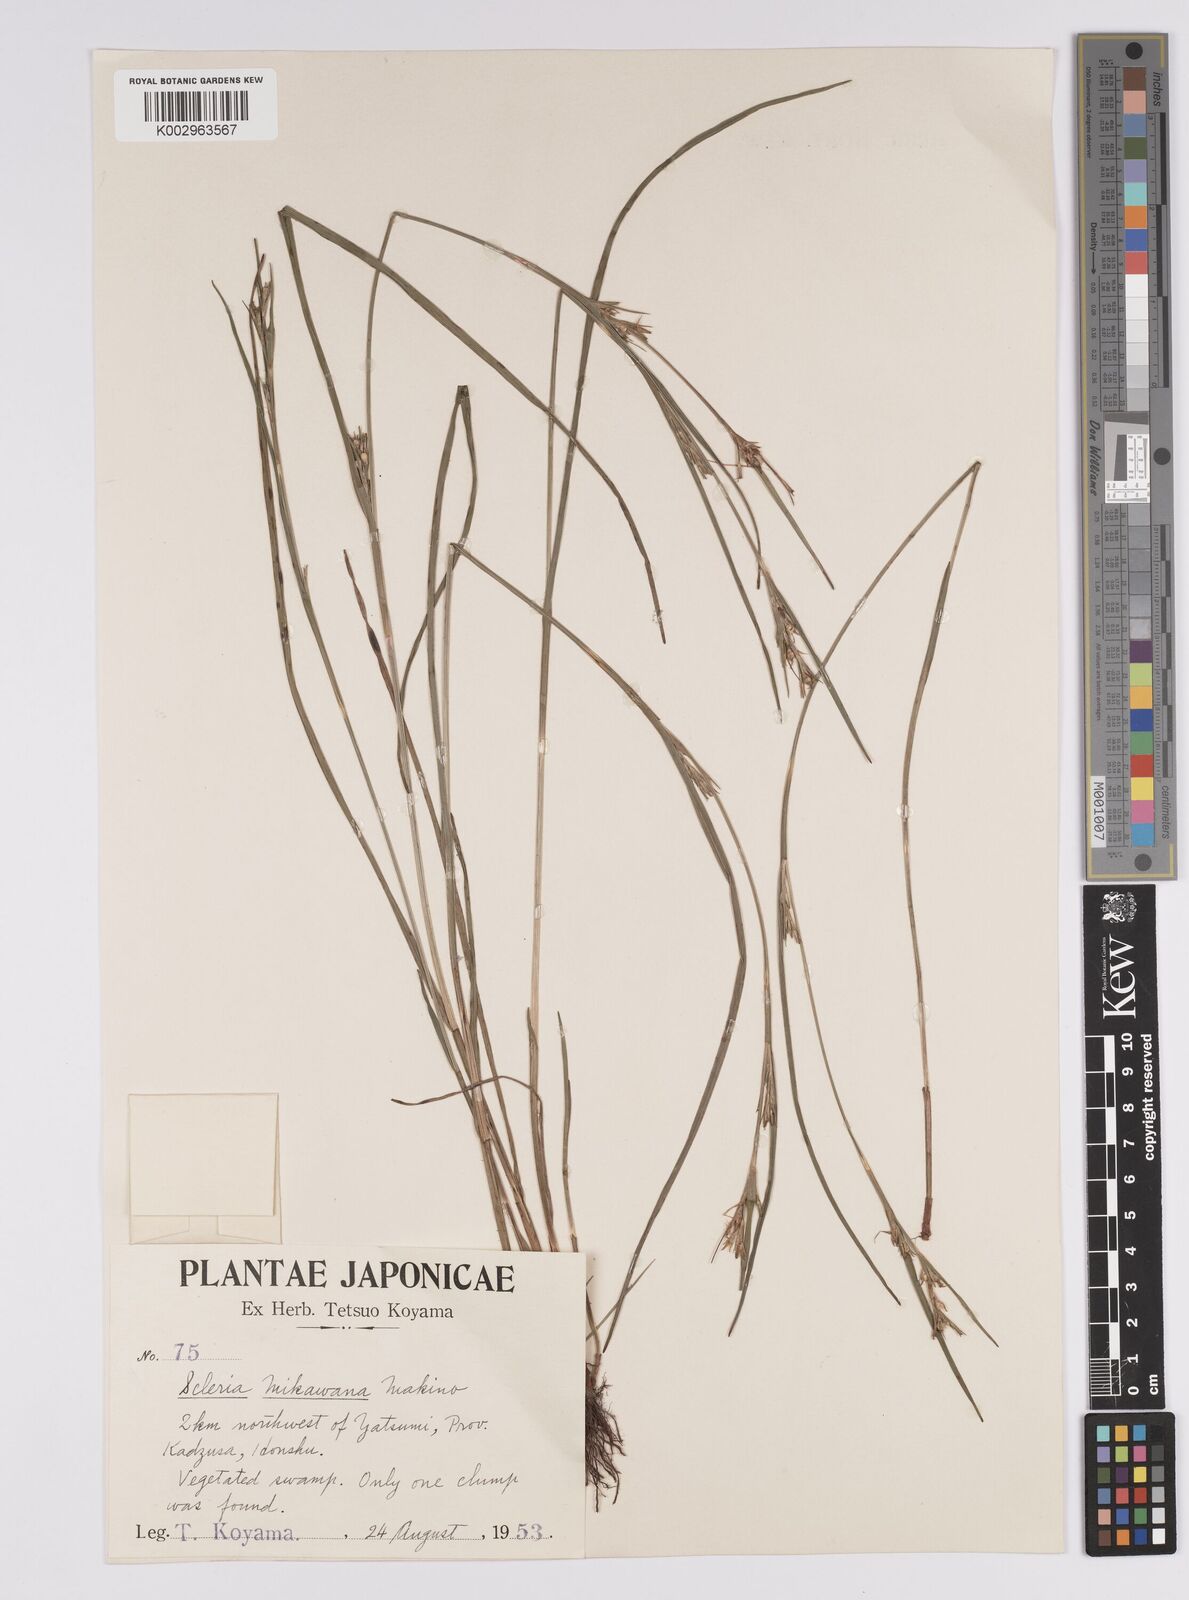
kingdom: Plantae
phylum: Tracheophyta
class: Liliopsida
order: Poales
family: Cyperaceae
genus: Scleria
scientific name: Scleria mikawana
